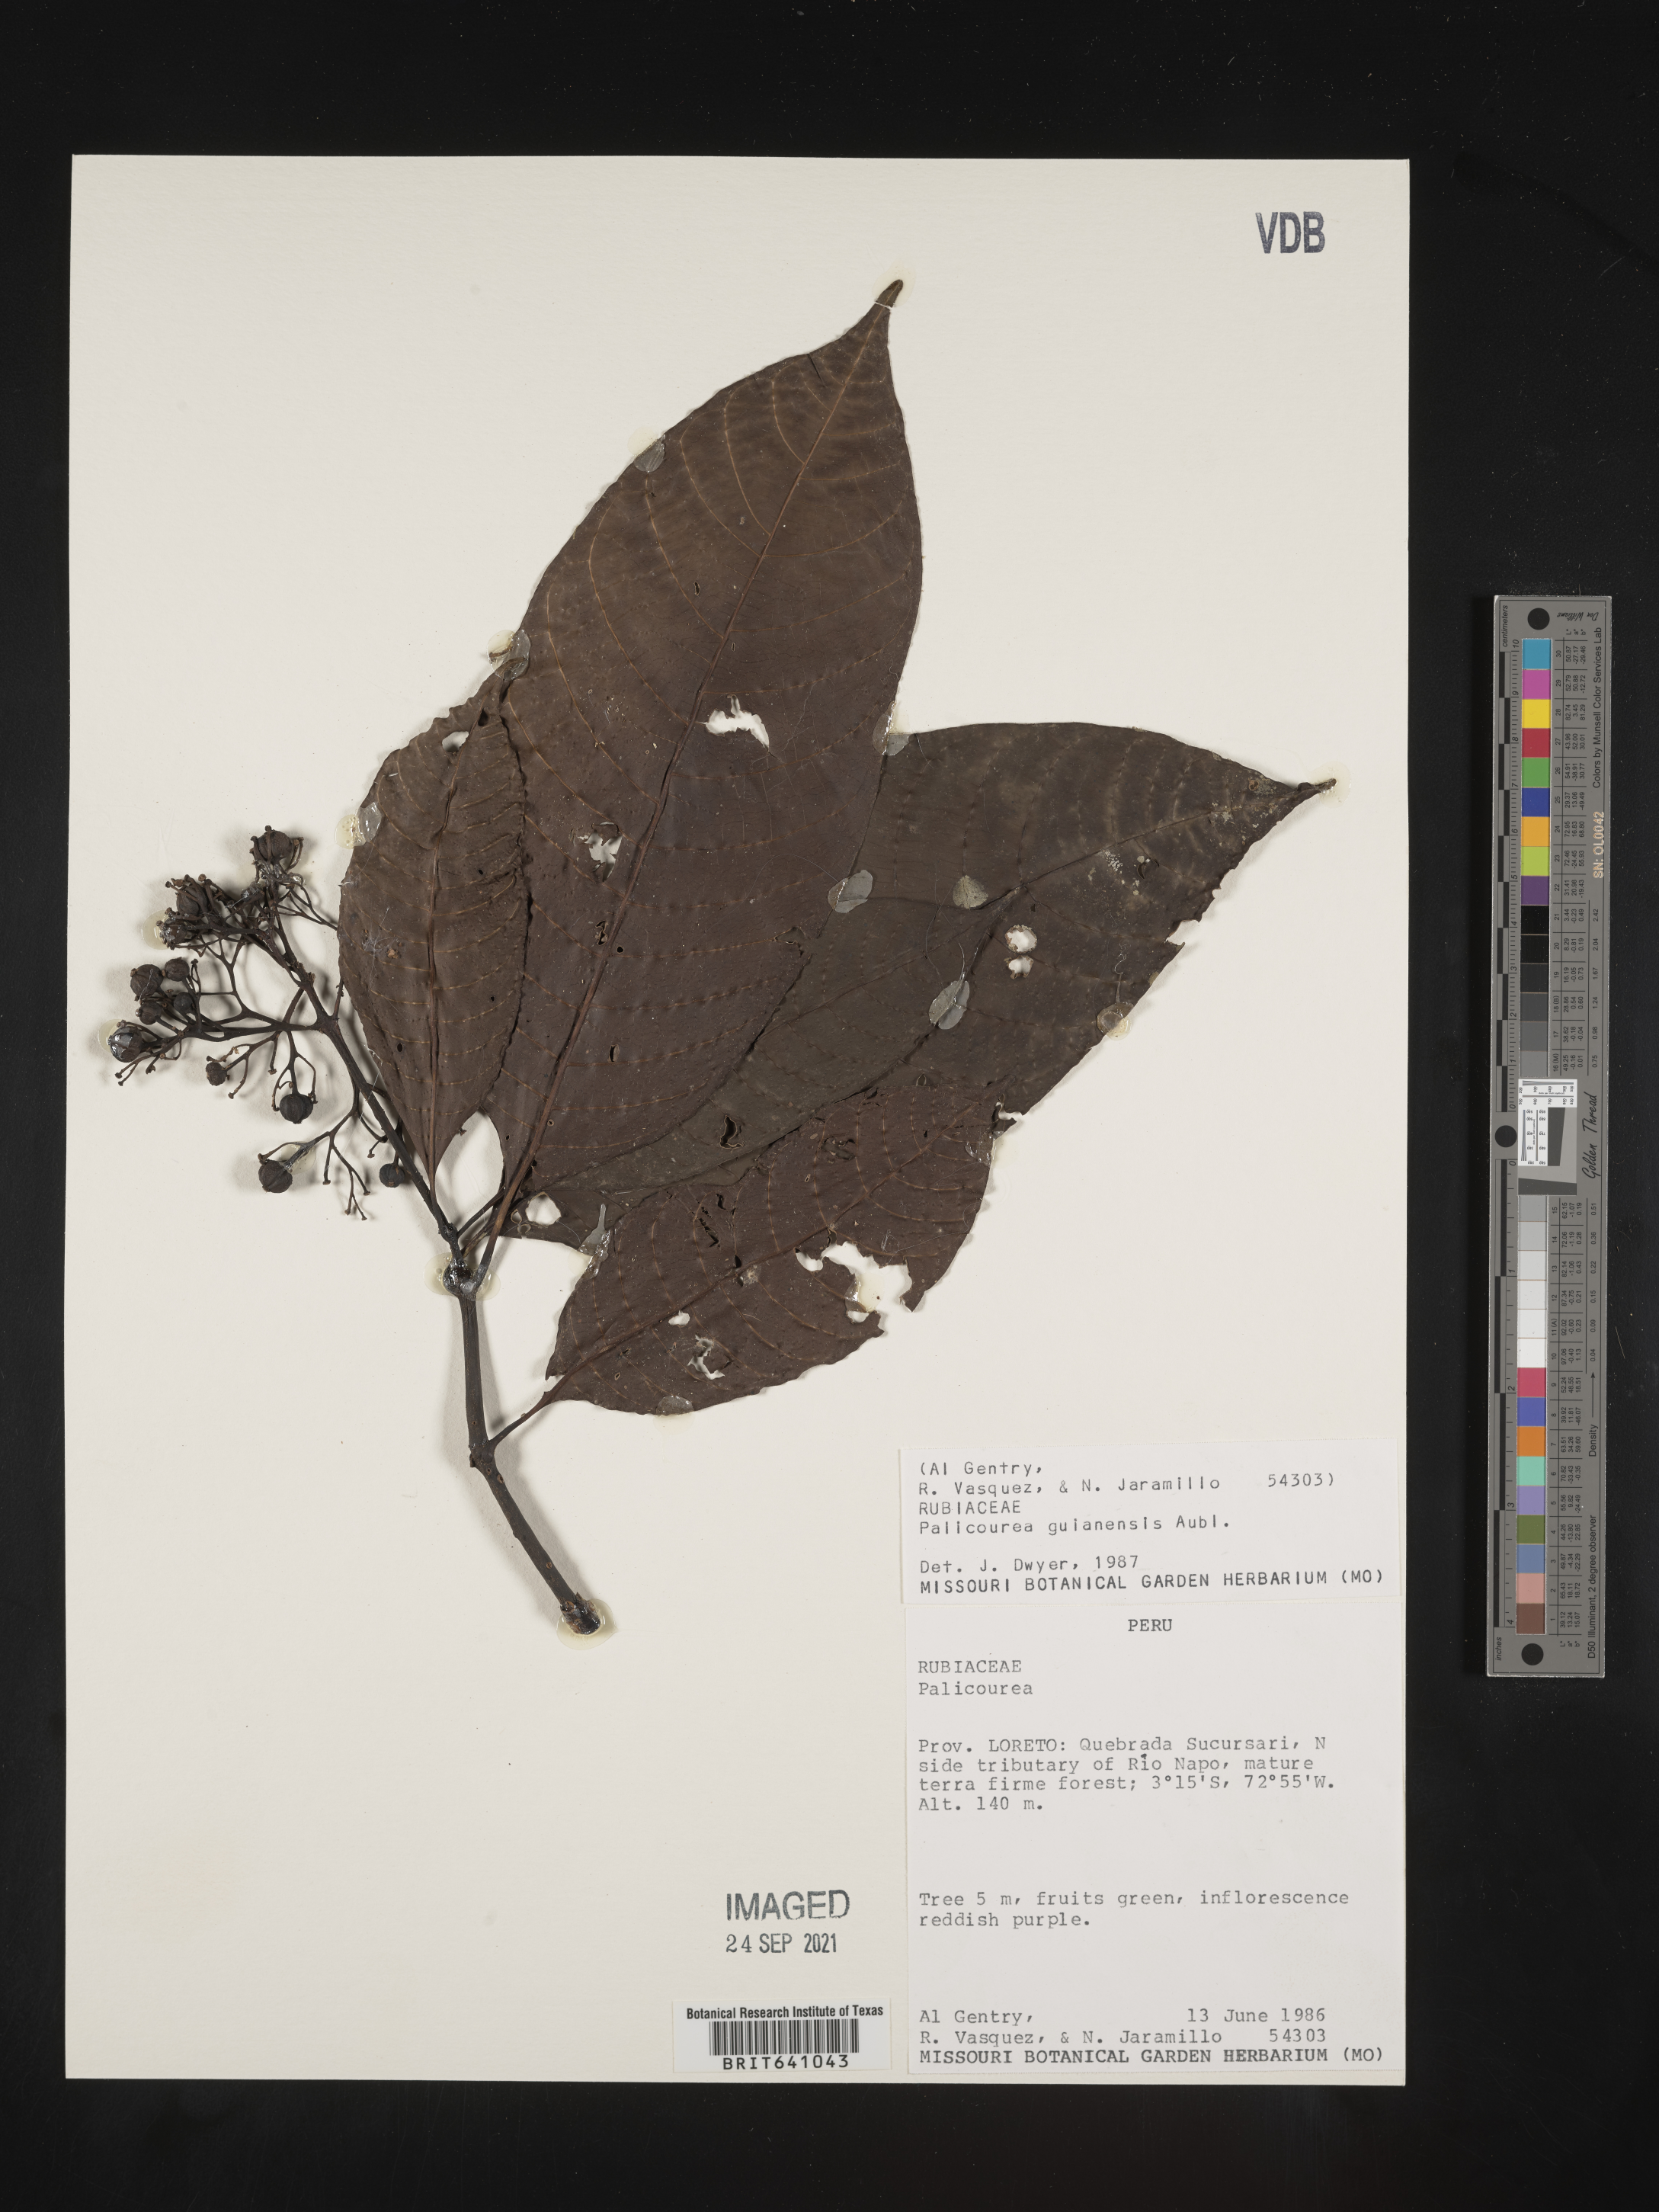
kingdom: Plantae
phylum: Tracheophyta
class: Magnoliopsida
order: Gentianales
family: Rubiaceae
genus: Palicourea
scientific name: Palicourea
